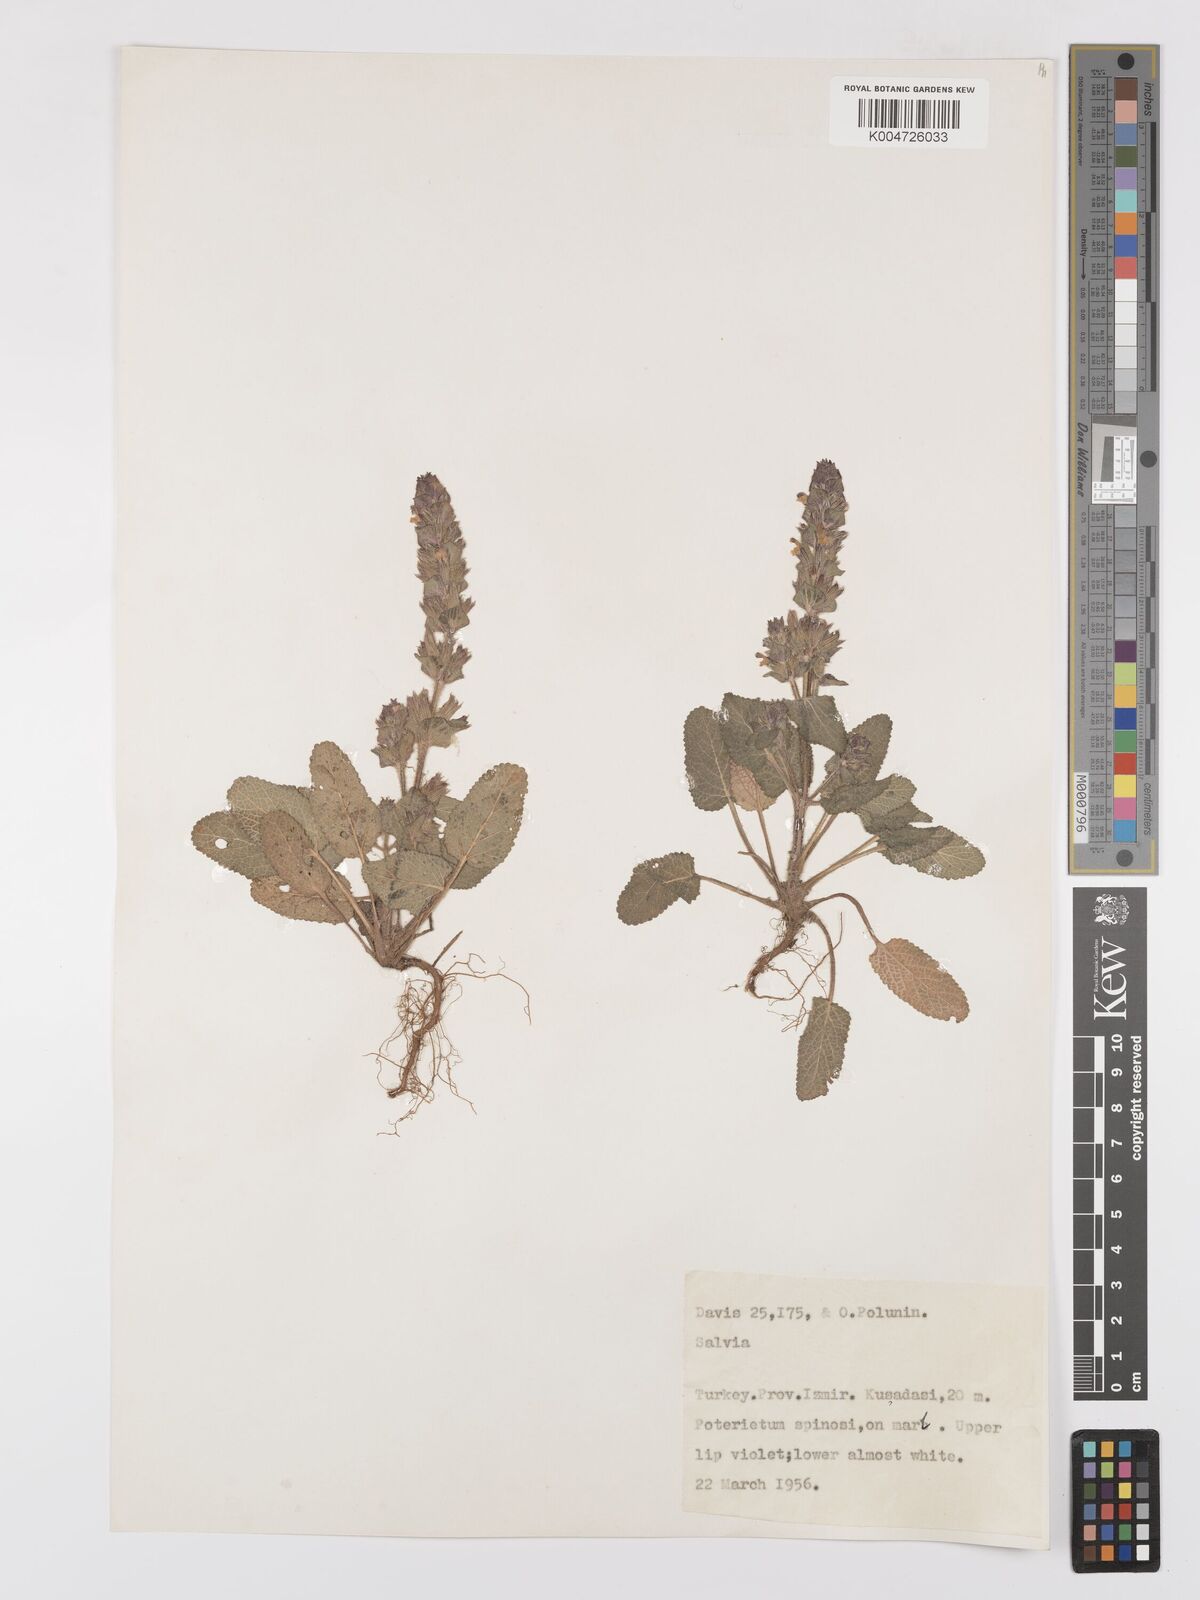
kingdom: Plantae
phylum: Tracheophyta
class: Magnoliopsida
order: Lamiales
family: Lamiaceae
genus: Salvia
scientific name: Salvia viridis
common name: Annual clary
